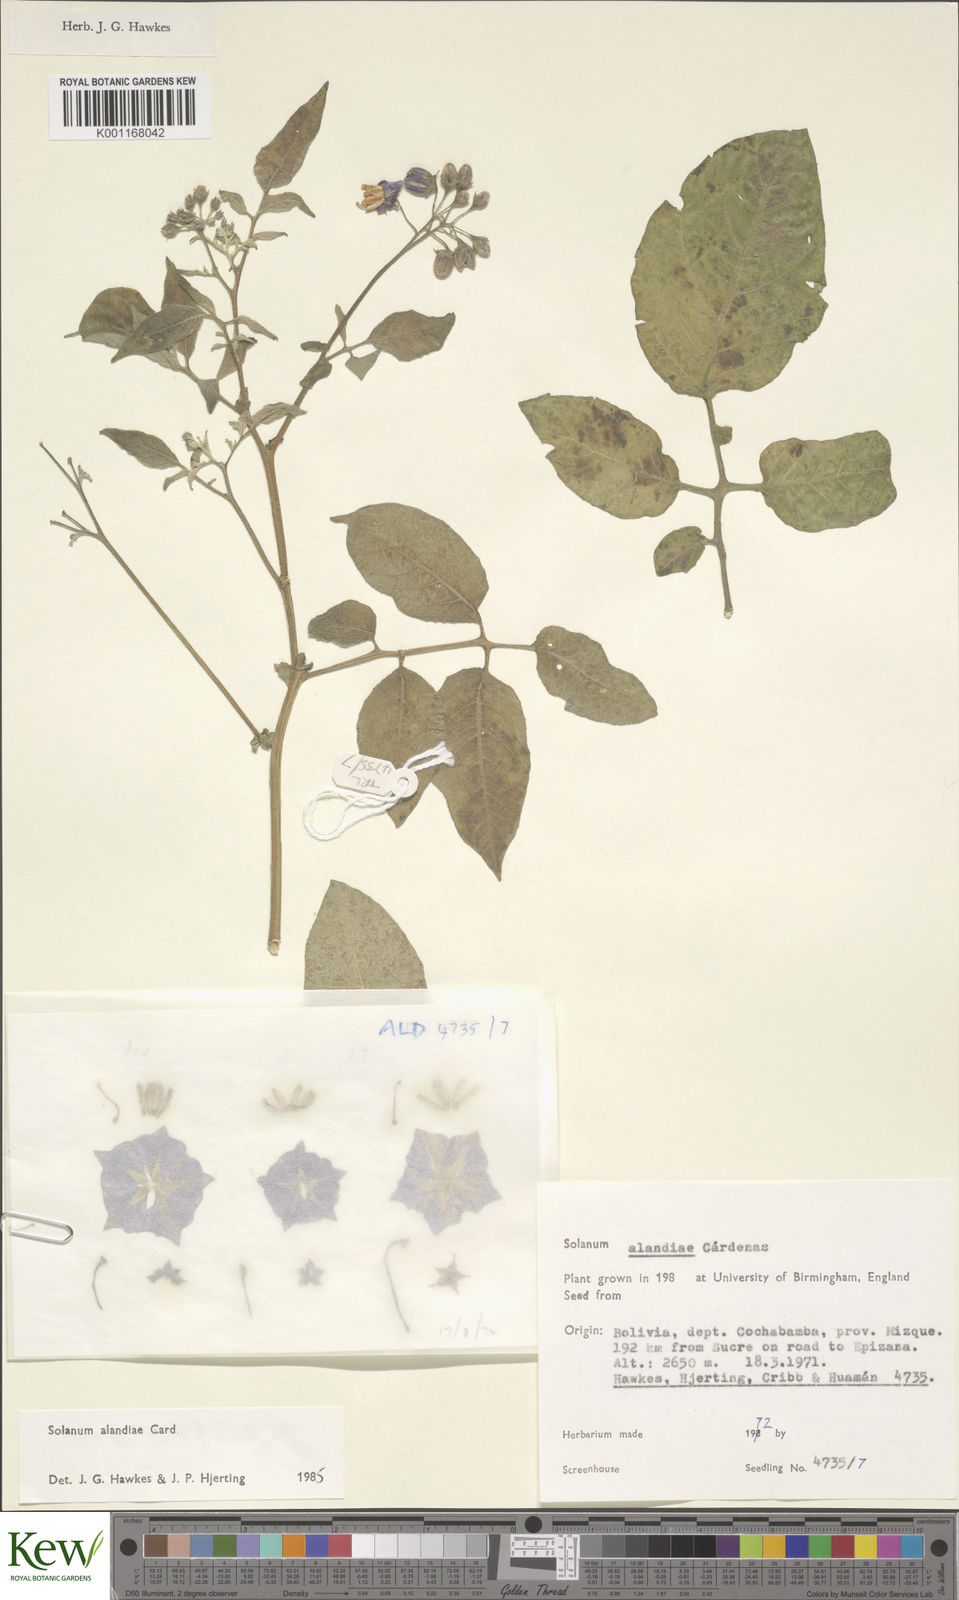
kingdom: Plantae
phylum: Tracheophyta
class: Magnoliopsida
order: Solanales
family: Solanaceae
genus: Solanum
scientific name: Solanum
